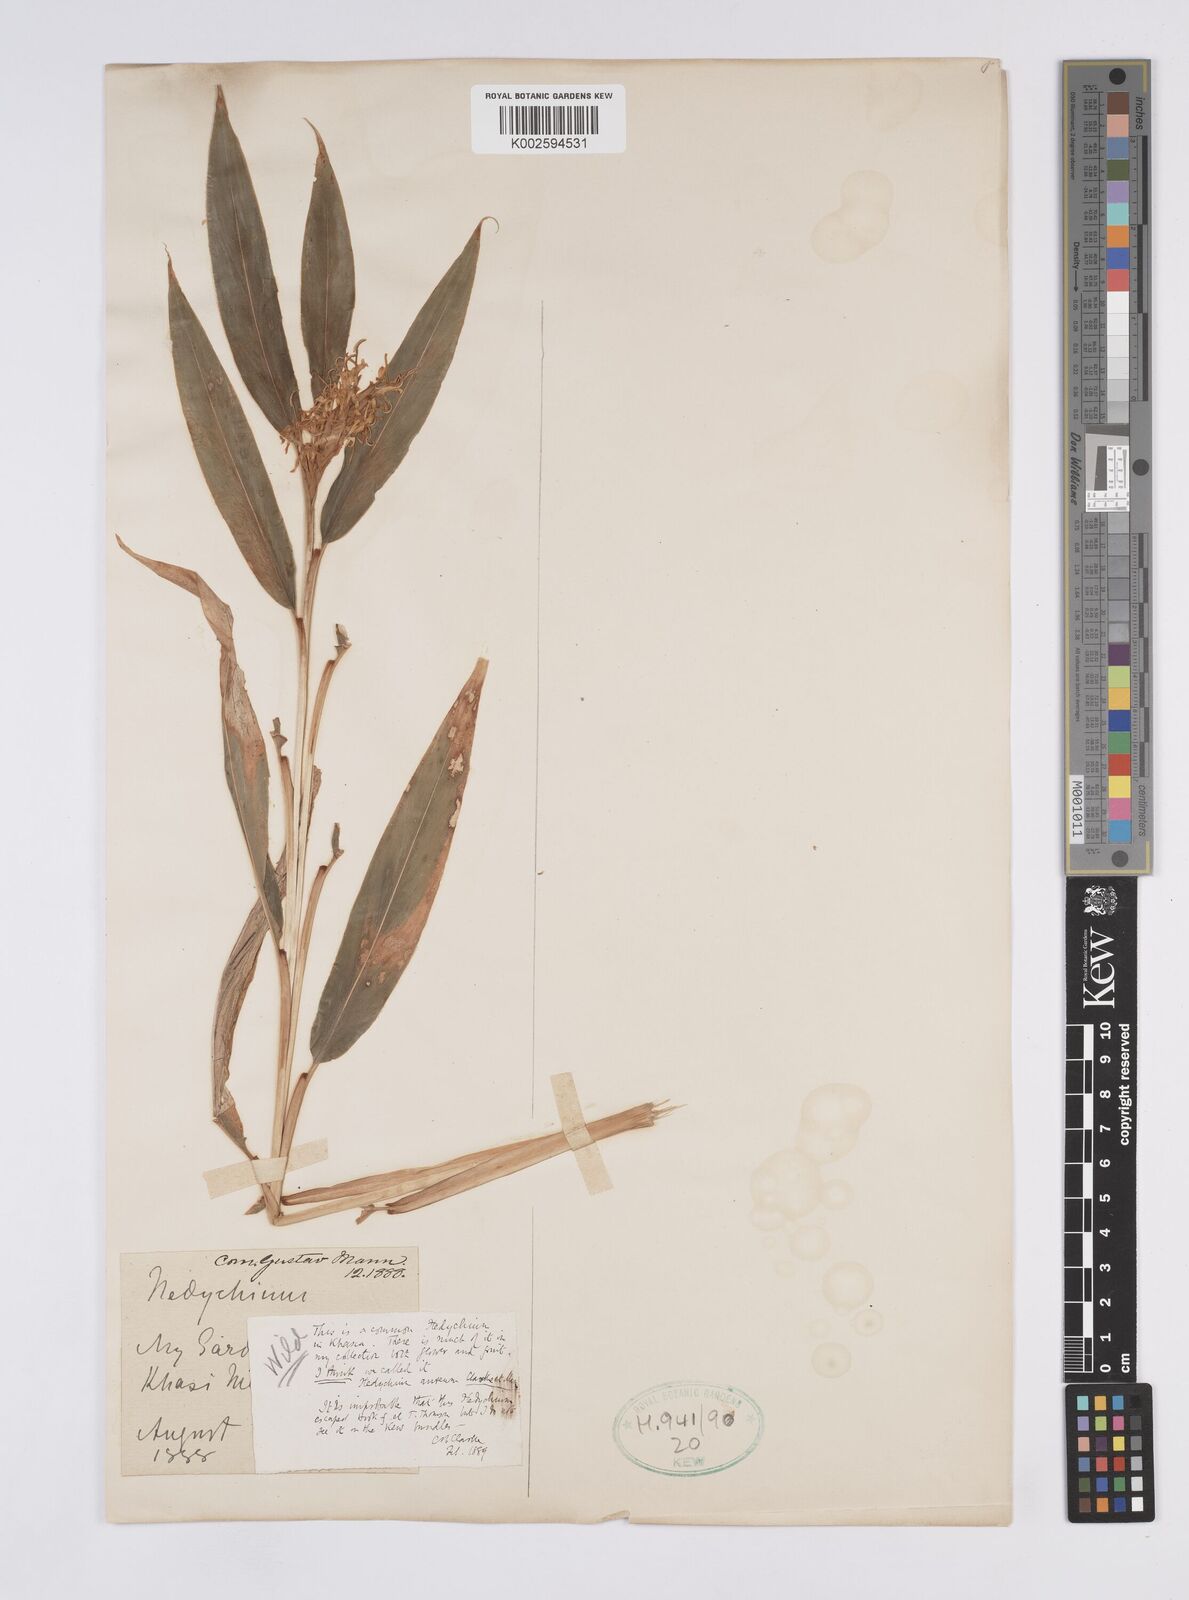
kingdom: Plantae
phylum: Tracheophyta
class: Liliopsida
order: Zingiberales
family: Zingiberaceae
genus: Hedychium
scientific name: Hedychium
